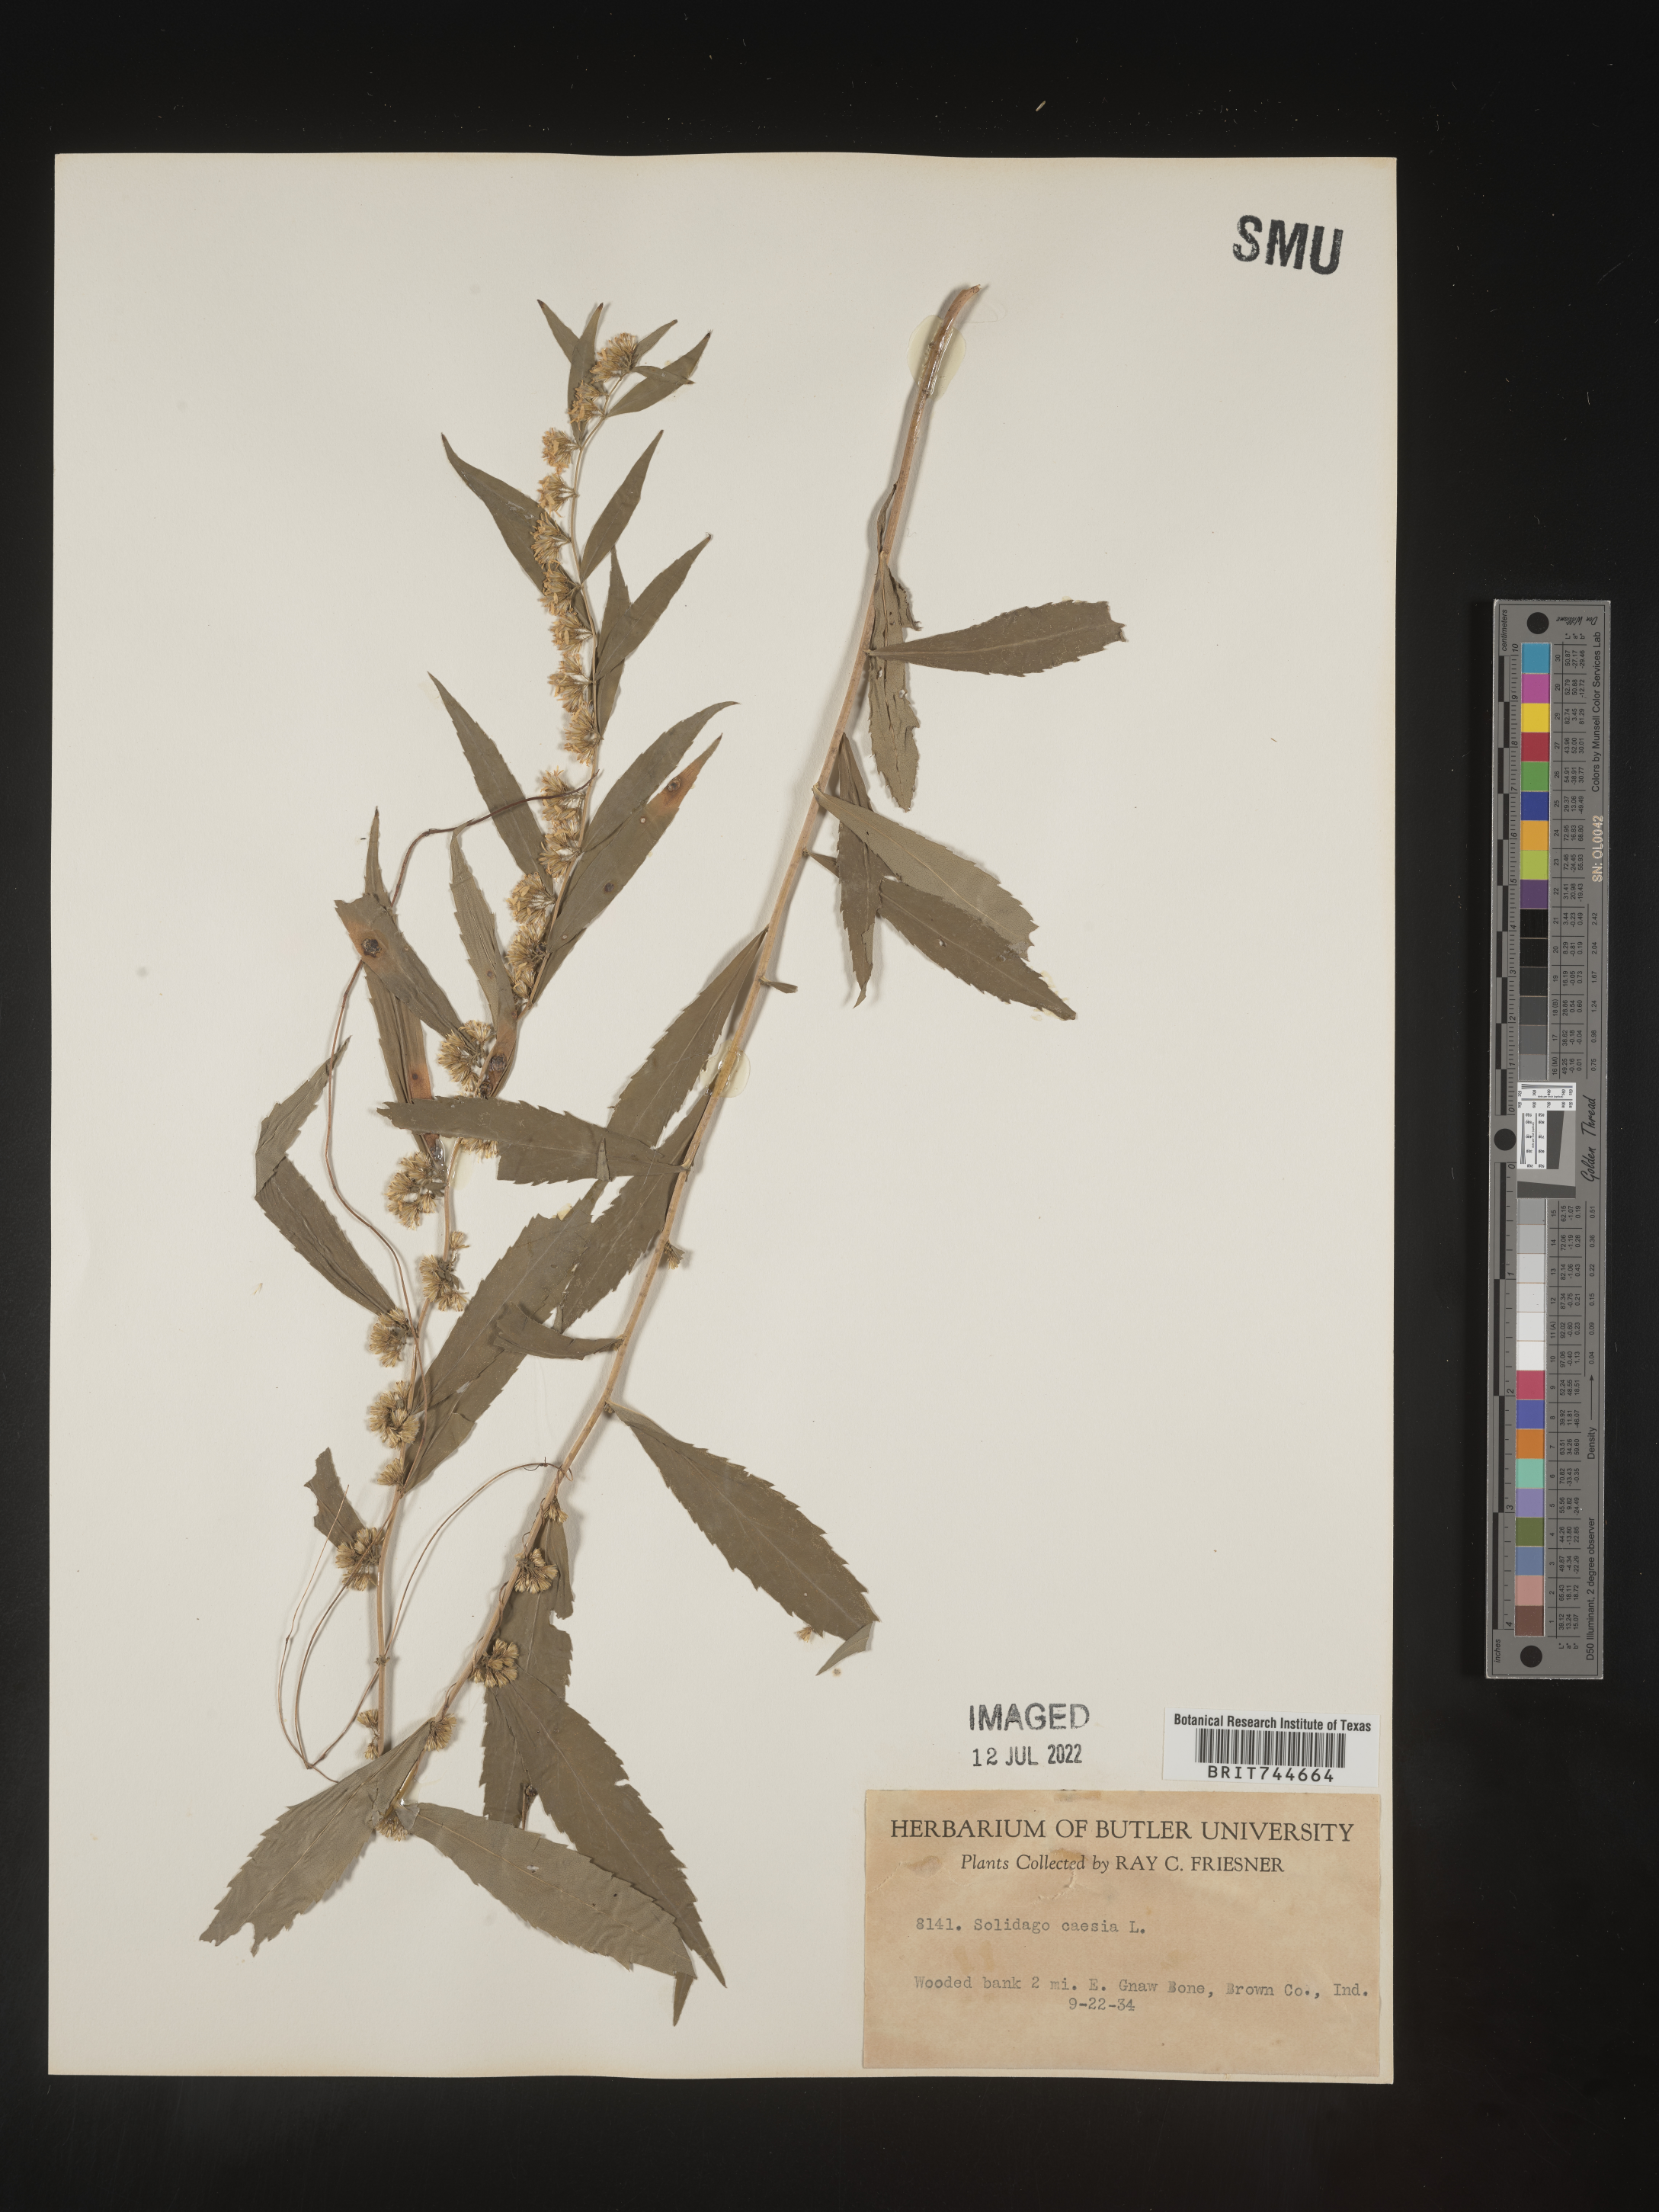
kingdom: Plantae
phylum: Tracheophyta
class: Magnoliopsida
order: Asterales
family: Asteraceae
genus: Solidago
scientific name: Solidago caesia
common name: Woodland goldenrod
